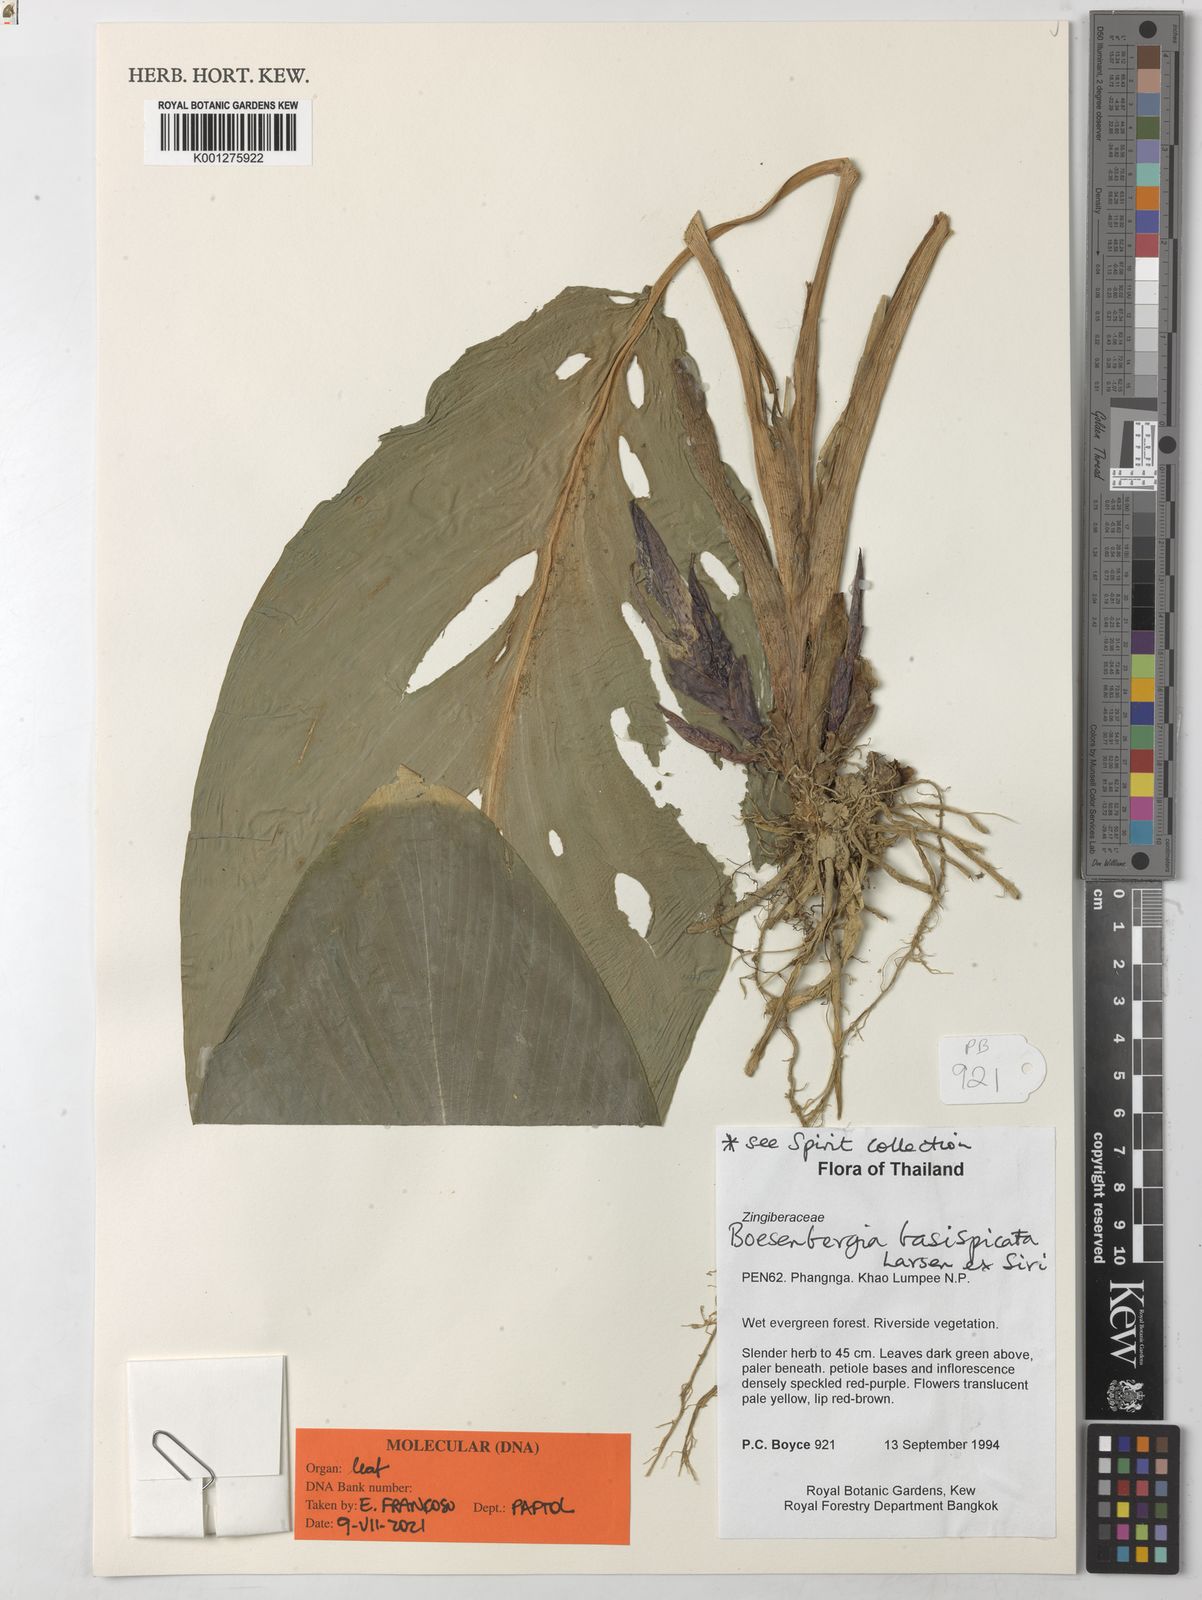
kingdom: Plantae
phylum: Tracheophyta
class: Liliopsida
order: Zingiberales
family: Zingiberaceae
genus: Boesenbergia
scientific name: Boesenbergia basispicata
